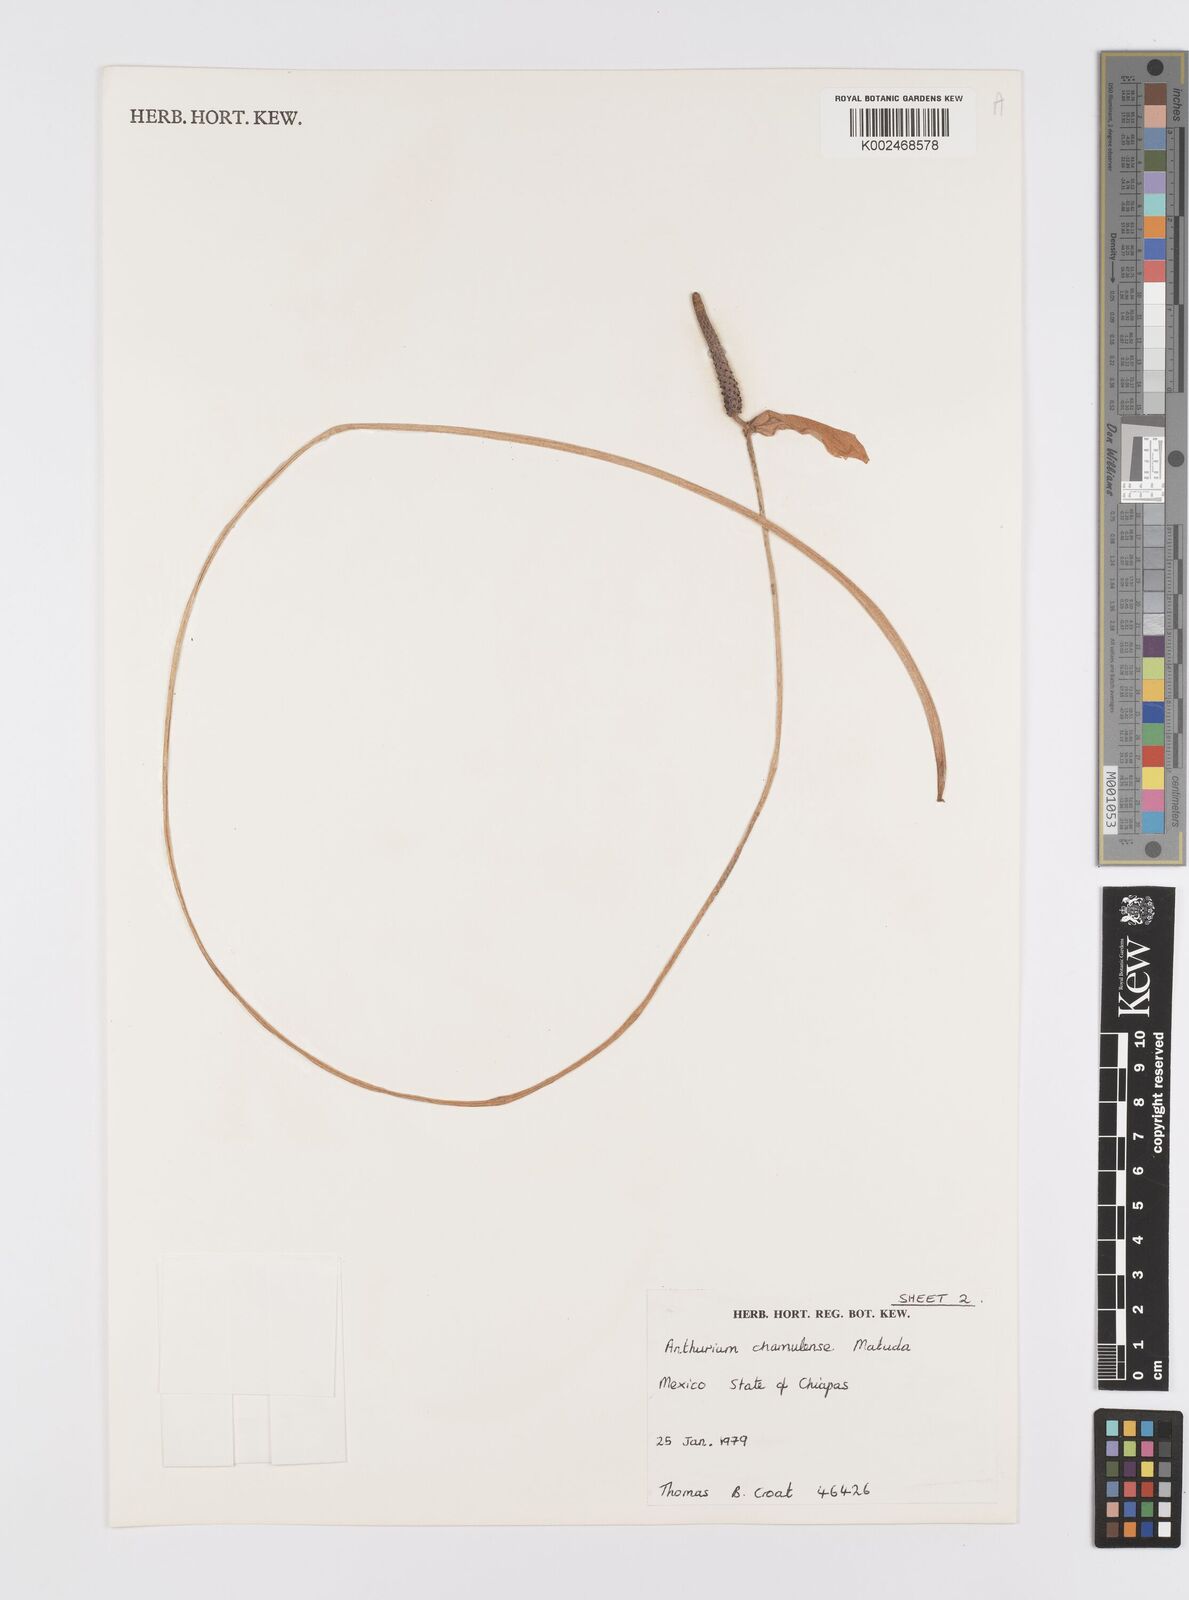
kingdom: Plantae
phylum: Tracheophyta
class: Liliopsida
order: Alismatales
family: Araceae
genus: Anthurium
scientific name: Anthurium chamulense
